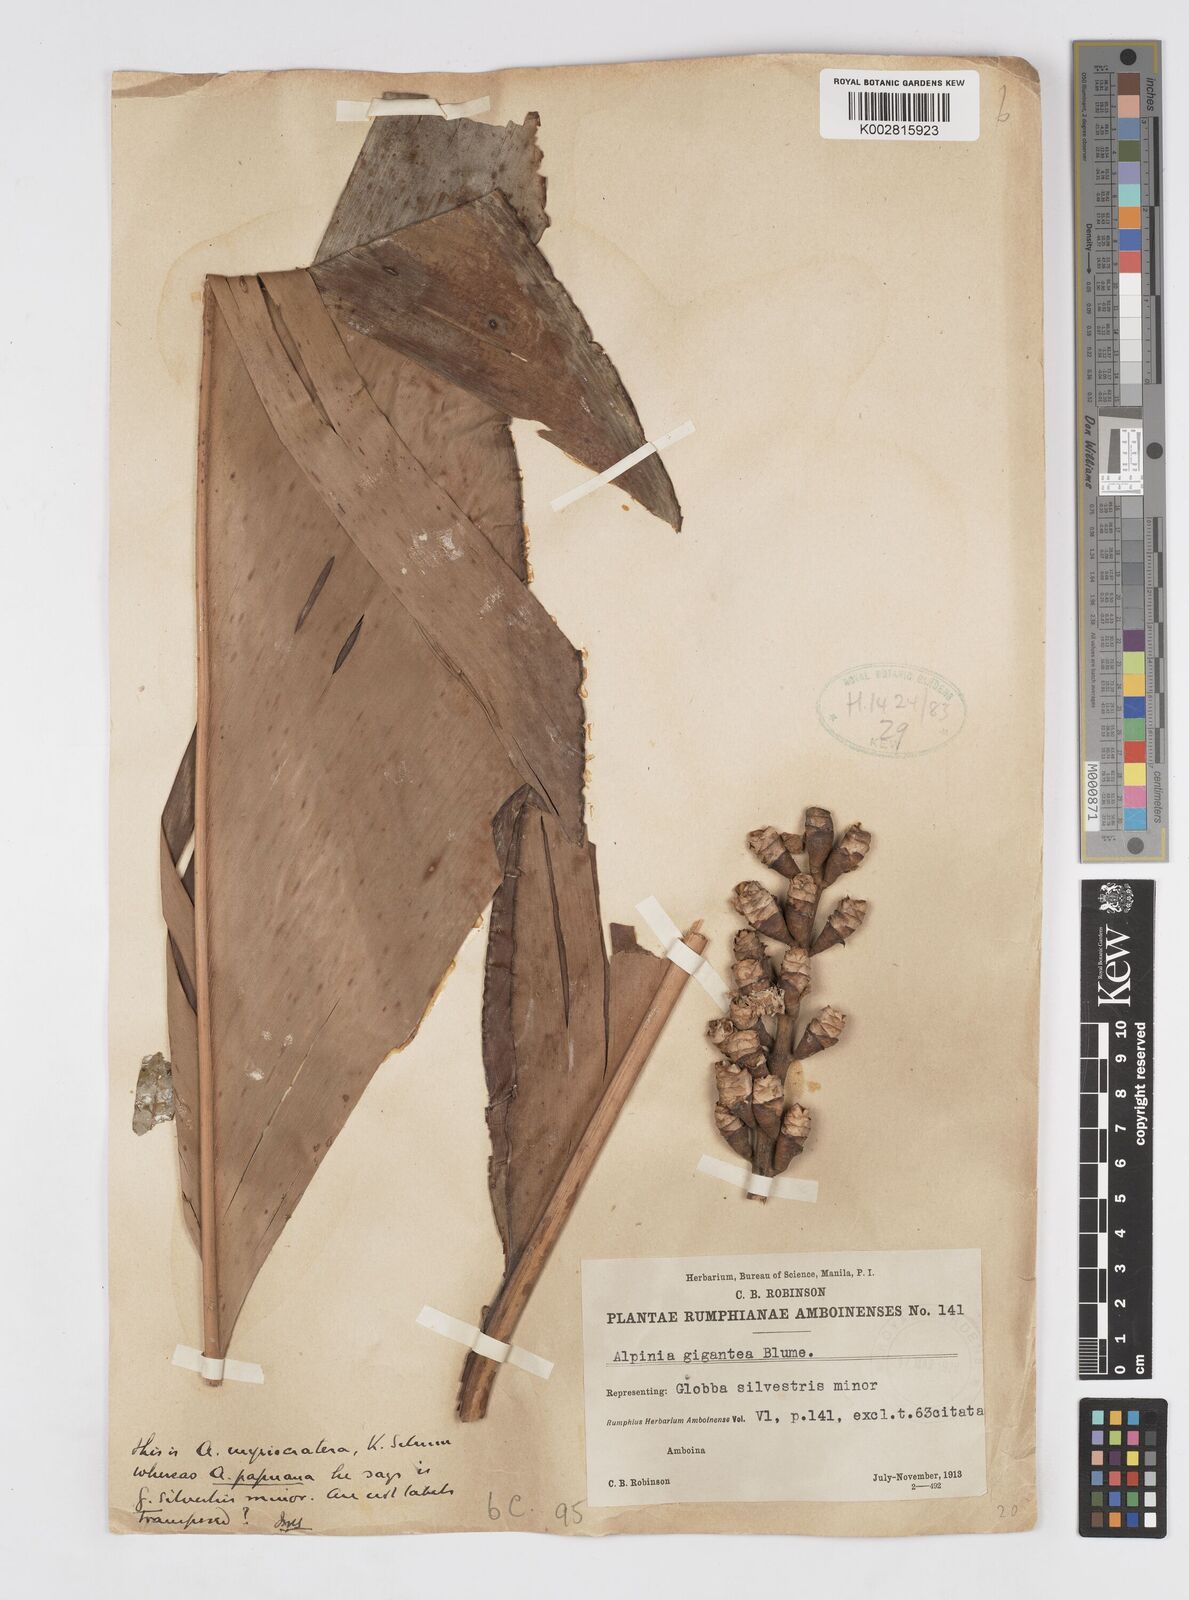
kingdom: Plantae
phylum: Tracheophyta
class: Liliopsida
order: Zingiberales
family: Zingiberaceae
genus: Alpinia
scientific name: Alpinia gigantea
